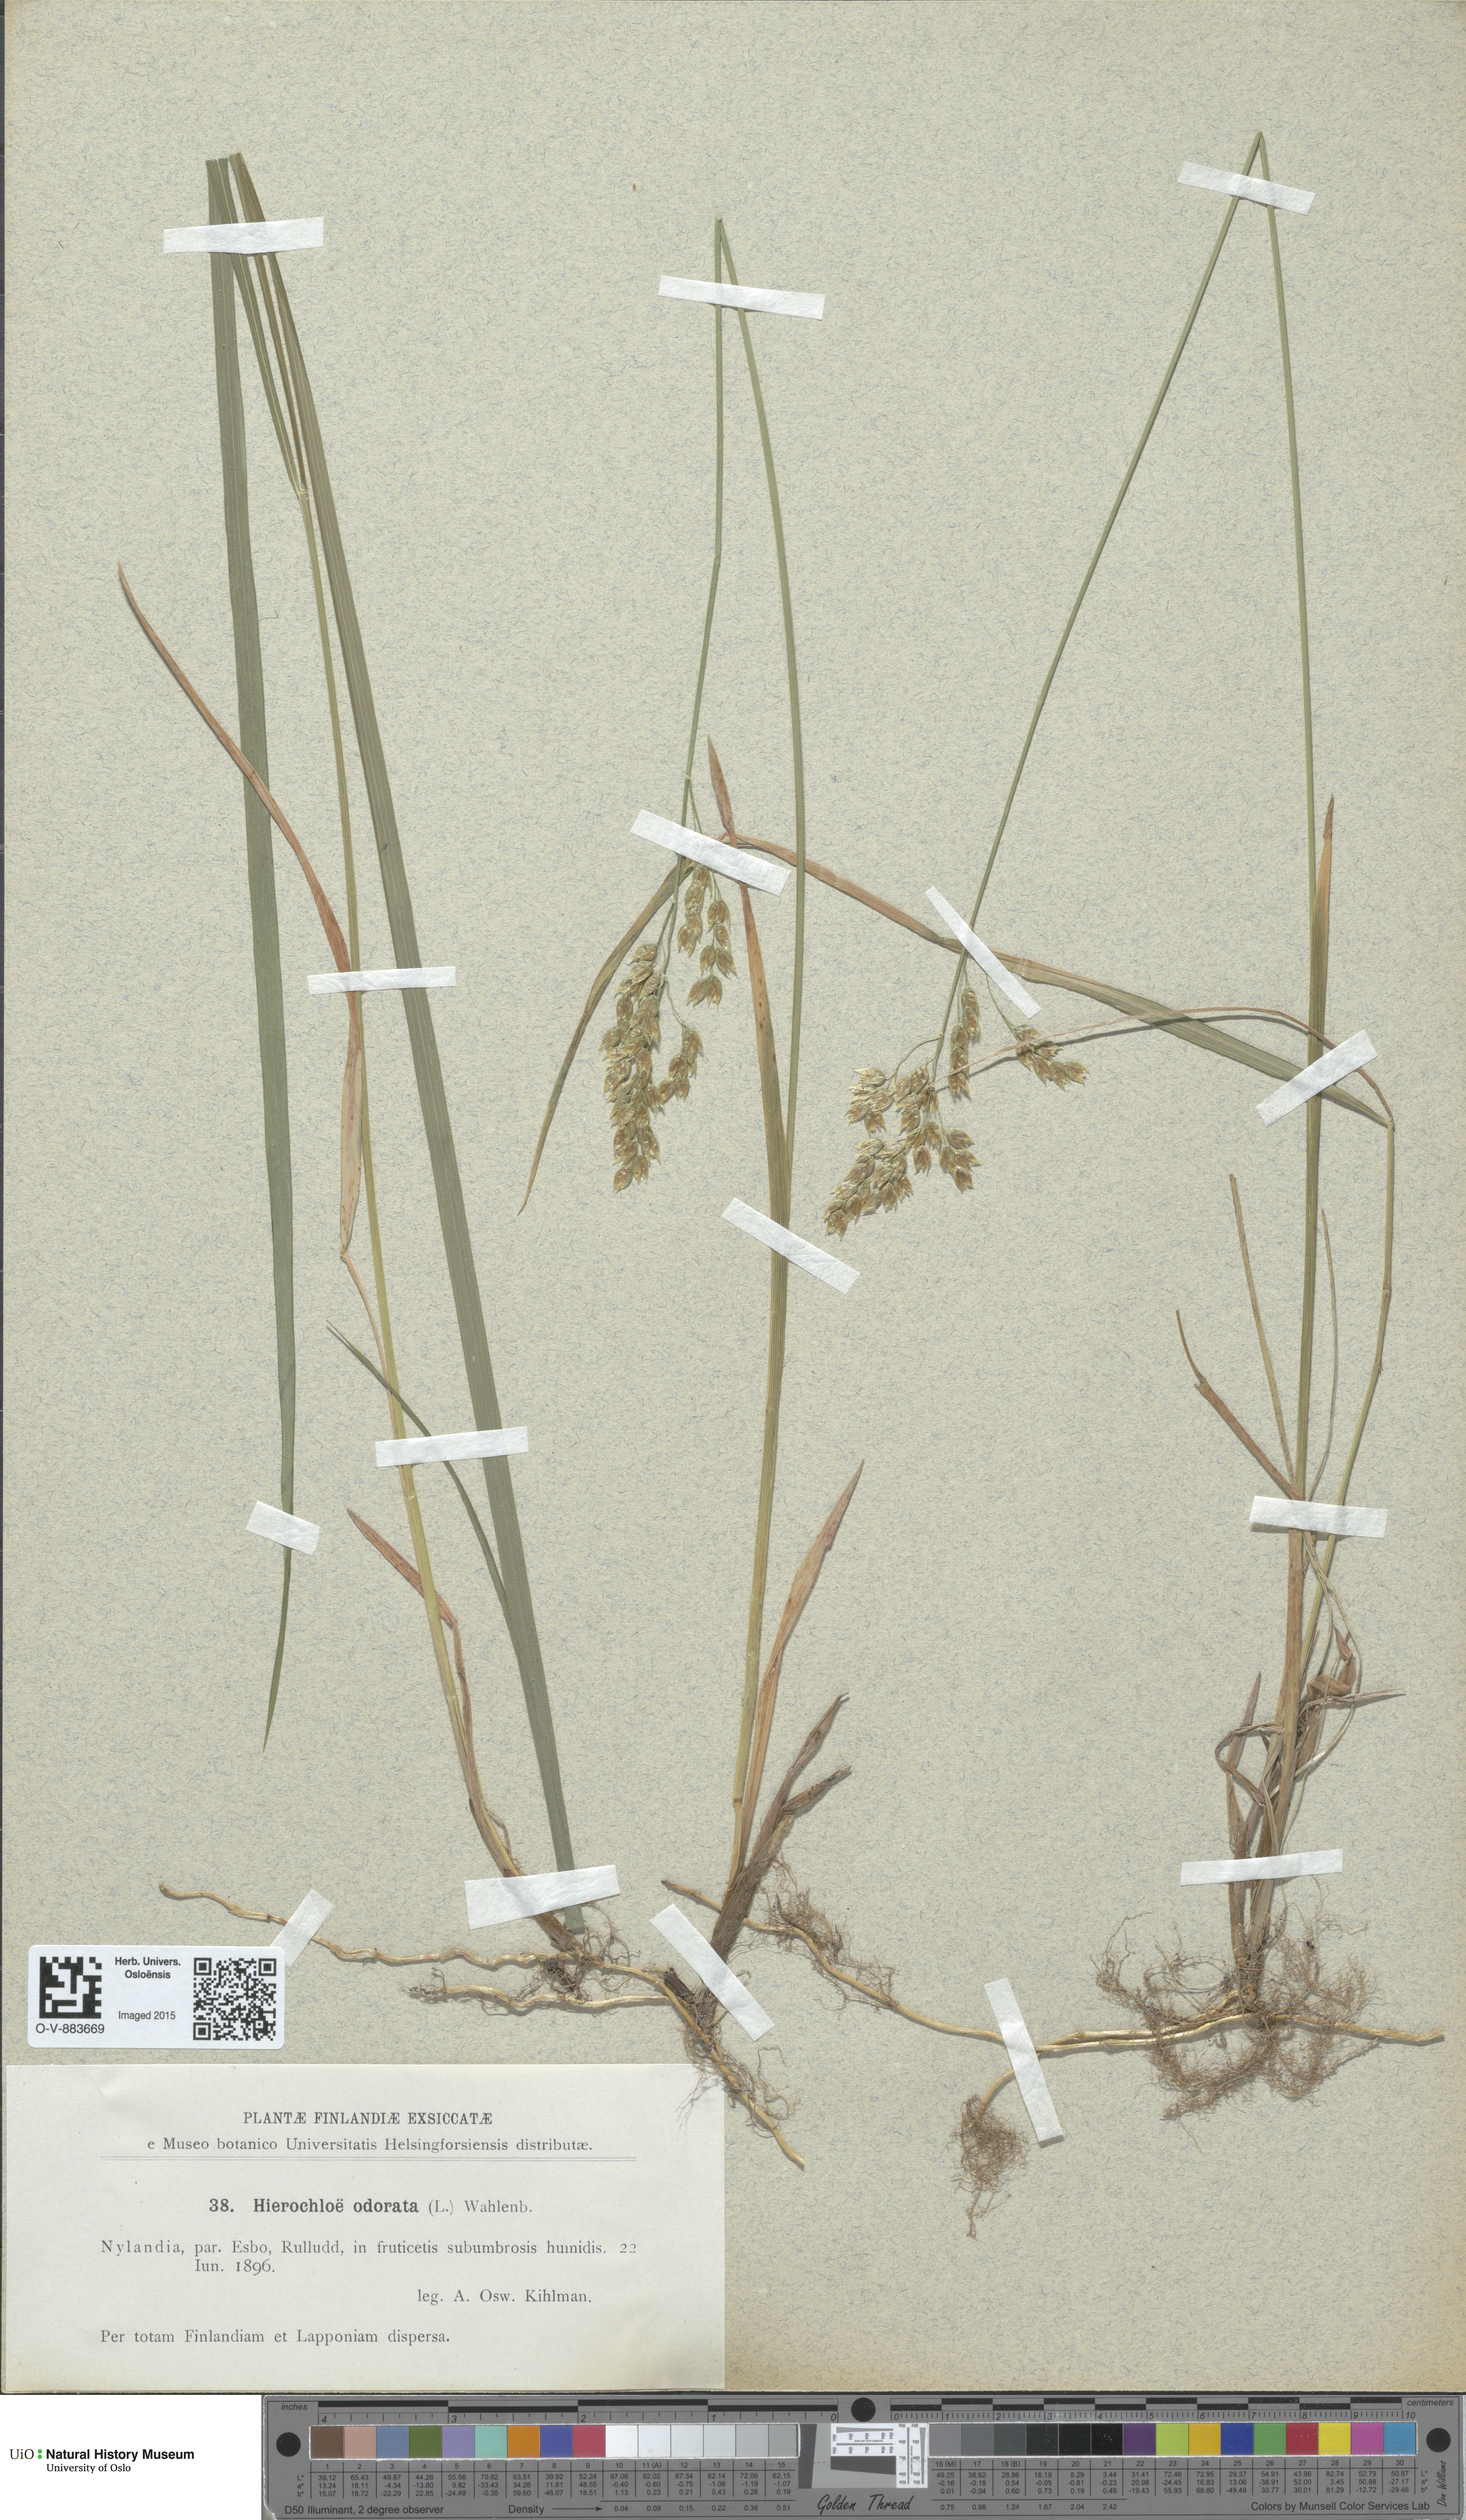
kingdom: Plantae
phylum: Tracheophyta
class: Liliopsida
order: Poales
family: Poaceae
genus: Anthoxanthum
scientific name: Anthoxanthum nitens
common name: Holy grass
